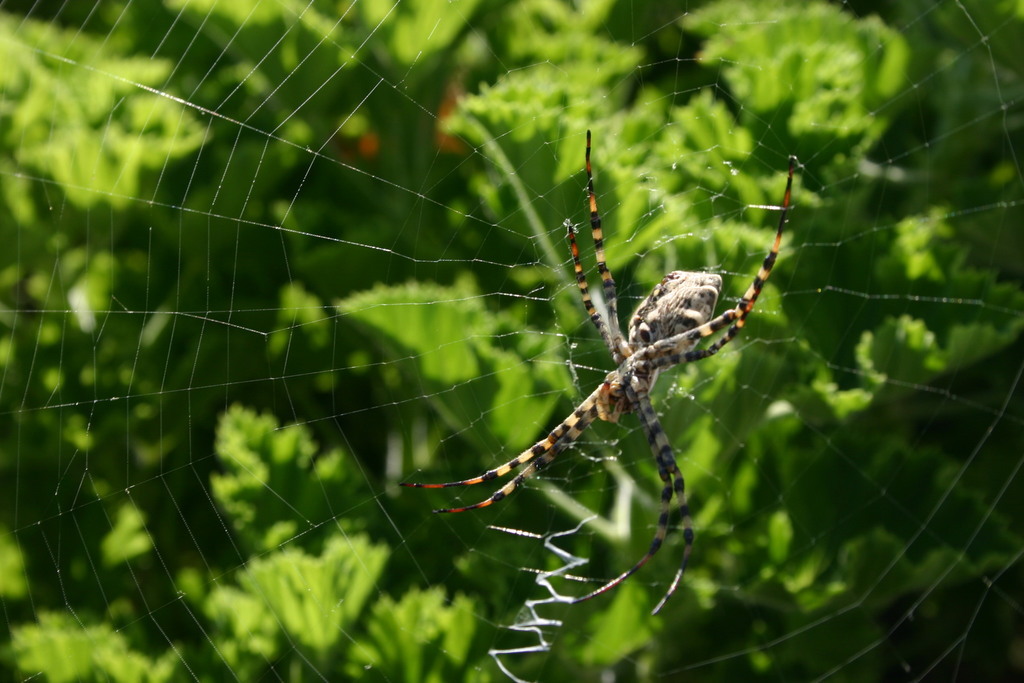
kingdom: Animalia
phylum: Arthropoda
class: Arachnida
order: Araneae
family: Araneidae
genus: Argiope
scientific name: Argiope lobata
